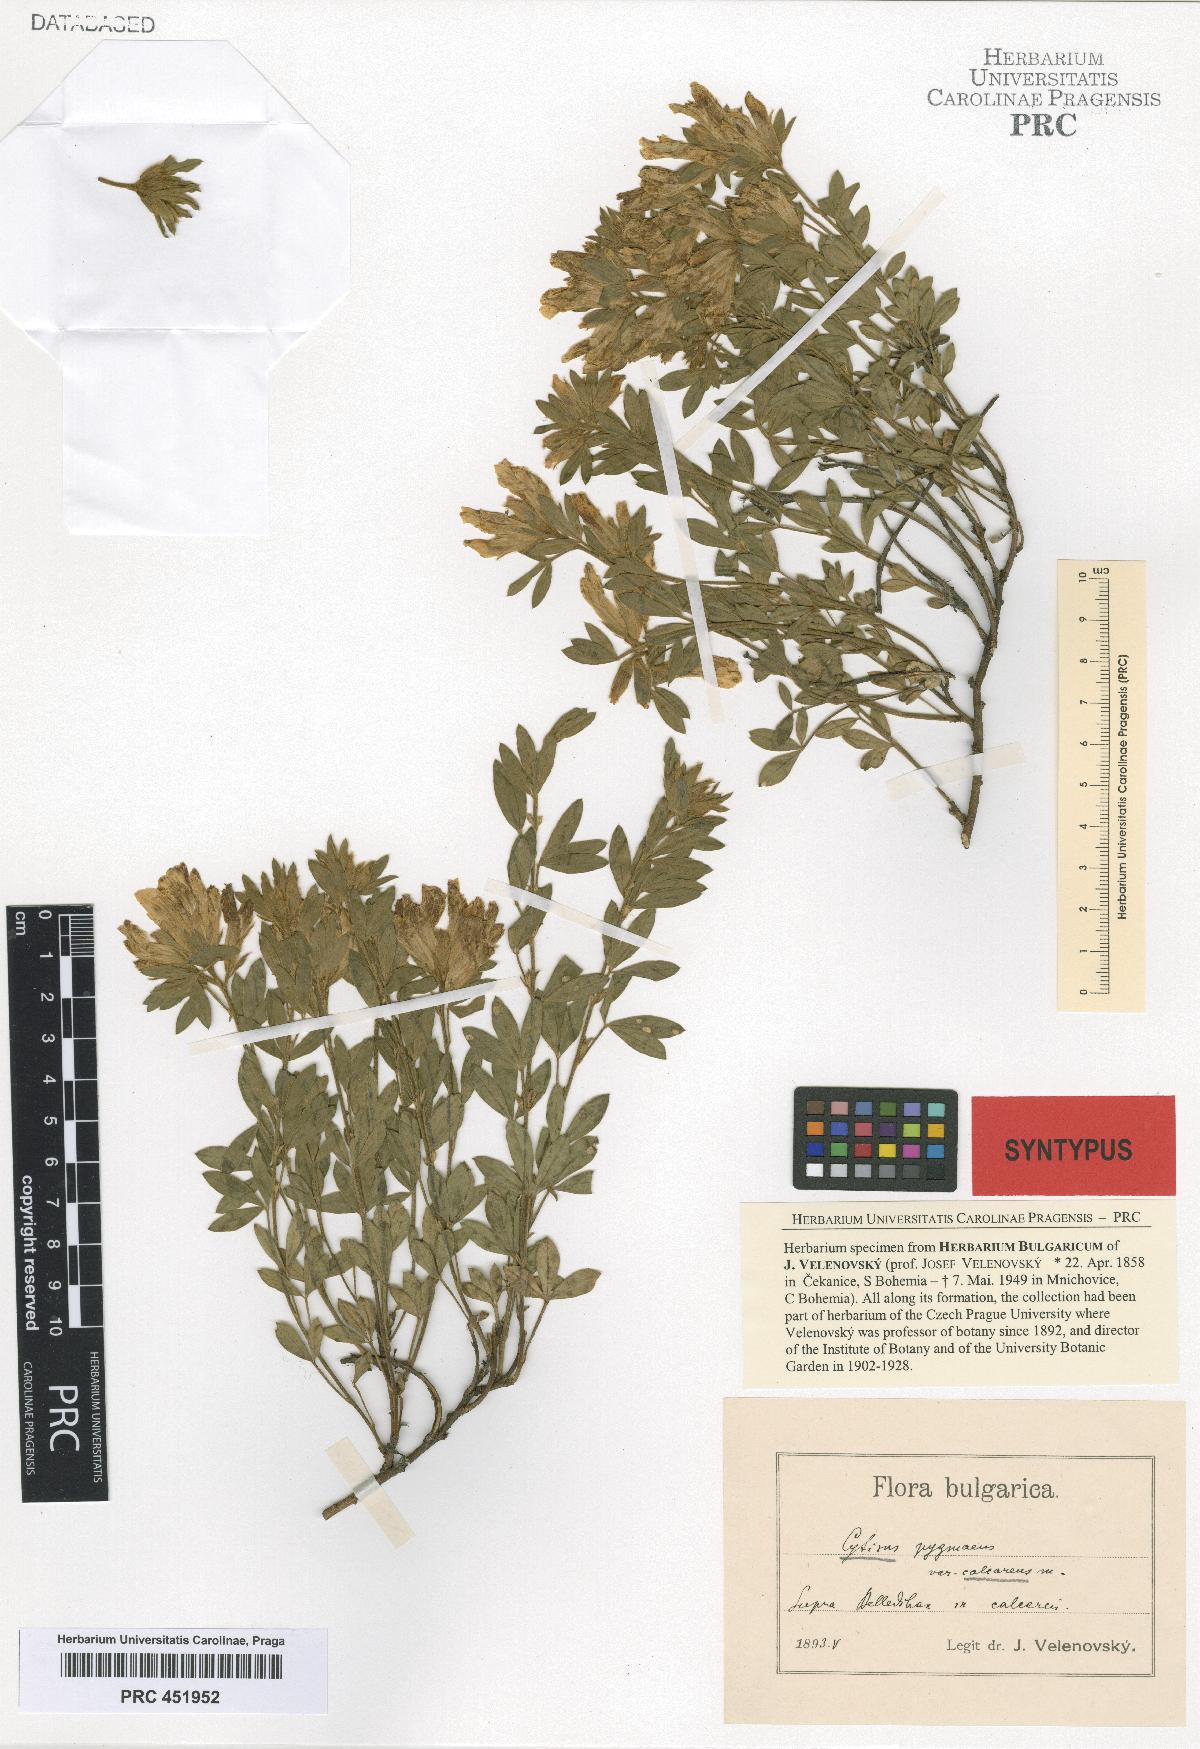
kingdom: Plantae
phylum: Tracheophyta
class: Magnoliopsida
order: Fabales
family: Fabaceae
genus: Chamaecytisus
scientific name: Chamaecytisus calcareus
